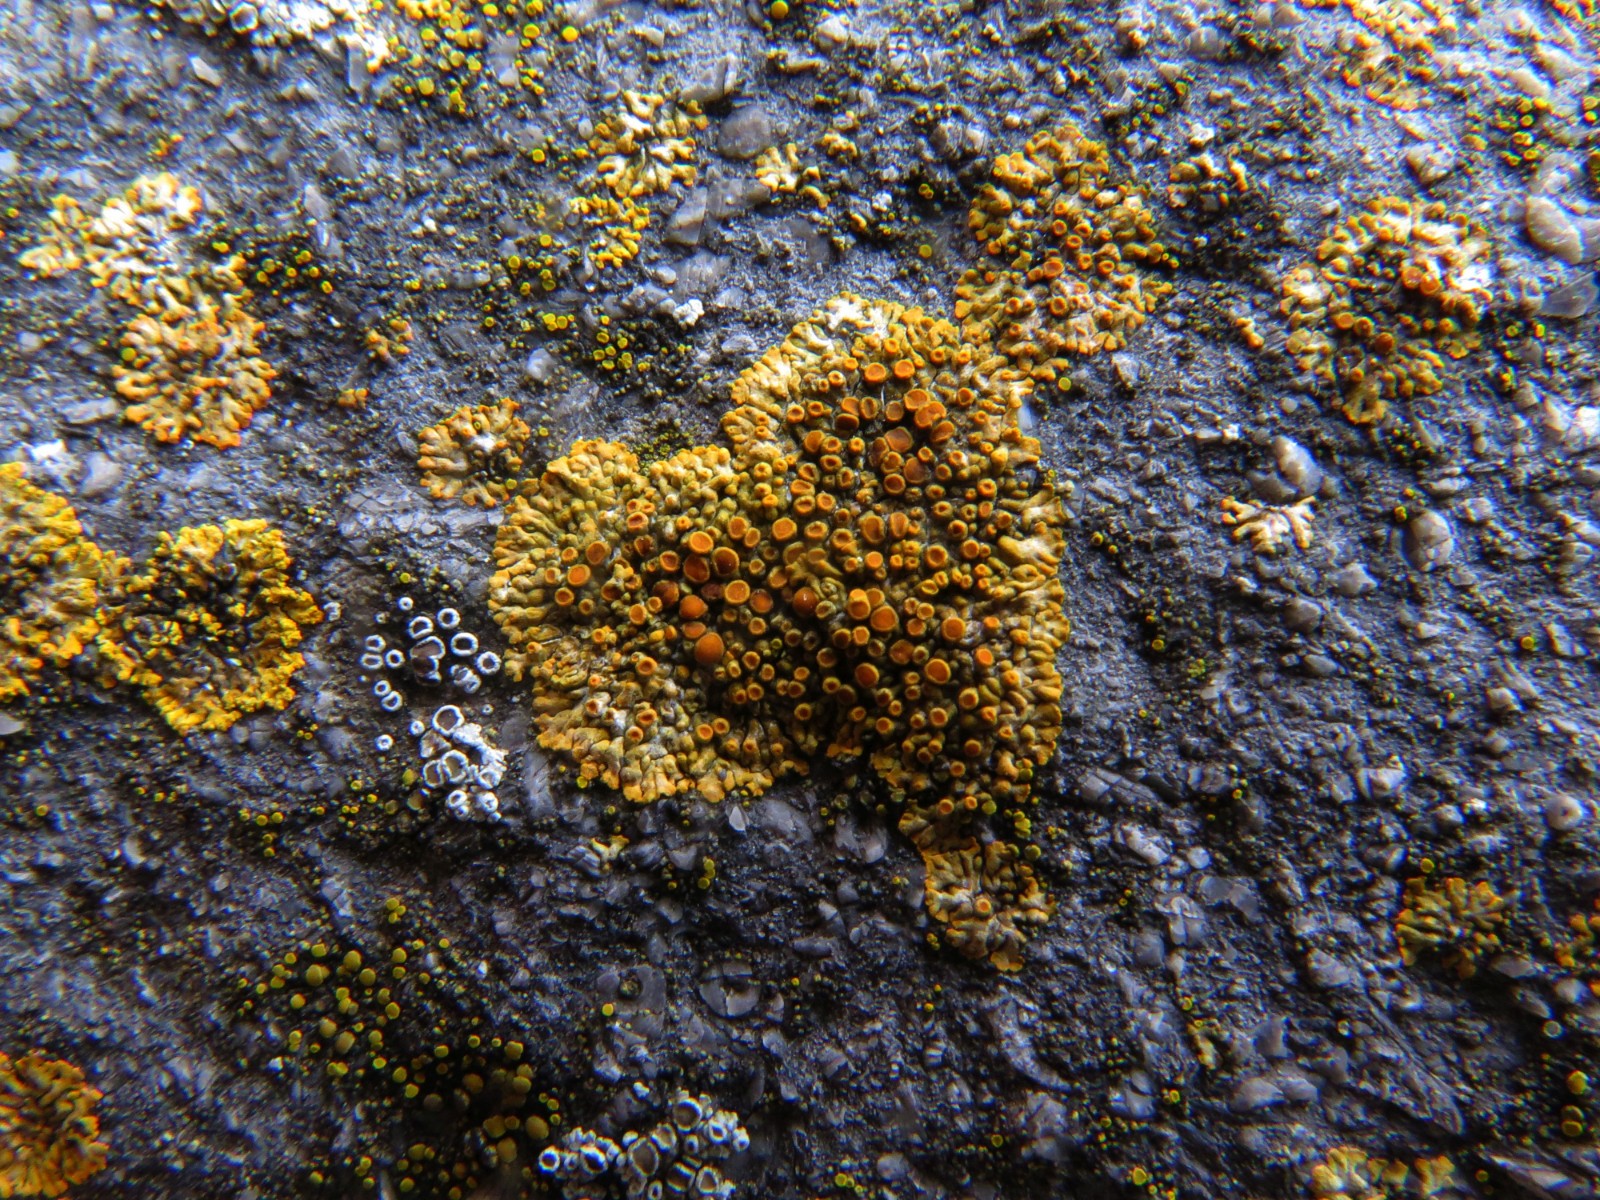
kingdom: Fungi
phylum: Ascomycota
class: Lecanoromycetes
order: Teloschistales
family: Teloschistaceae
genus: Variospora
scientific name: Variospora flavescens
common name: kalk-orangelav
